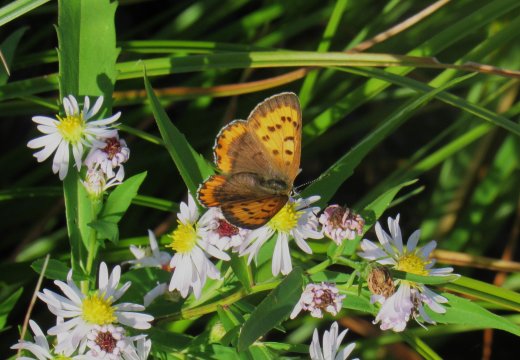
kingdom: Animalia
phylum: Arthropoda
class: Insecta
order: Lepidoptera
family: Sesiidae
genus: Sesia
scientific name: Sesia Lycaena hyllus
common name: Bronze Copper
